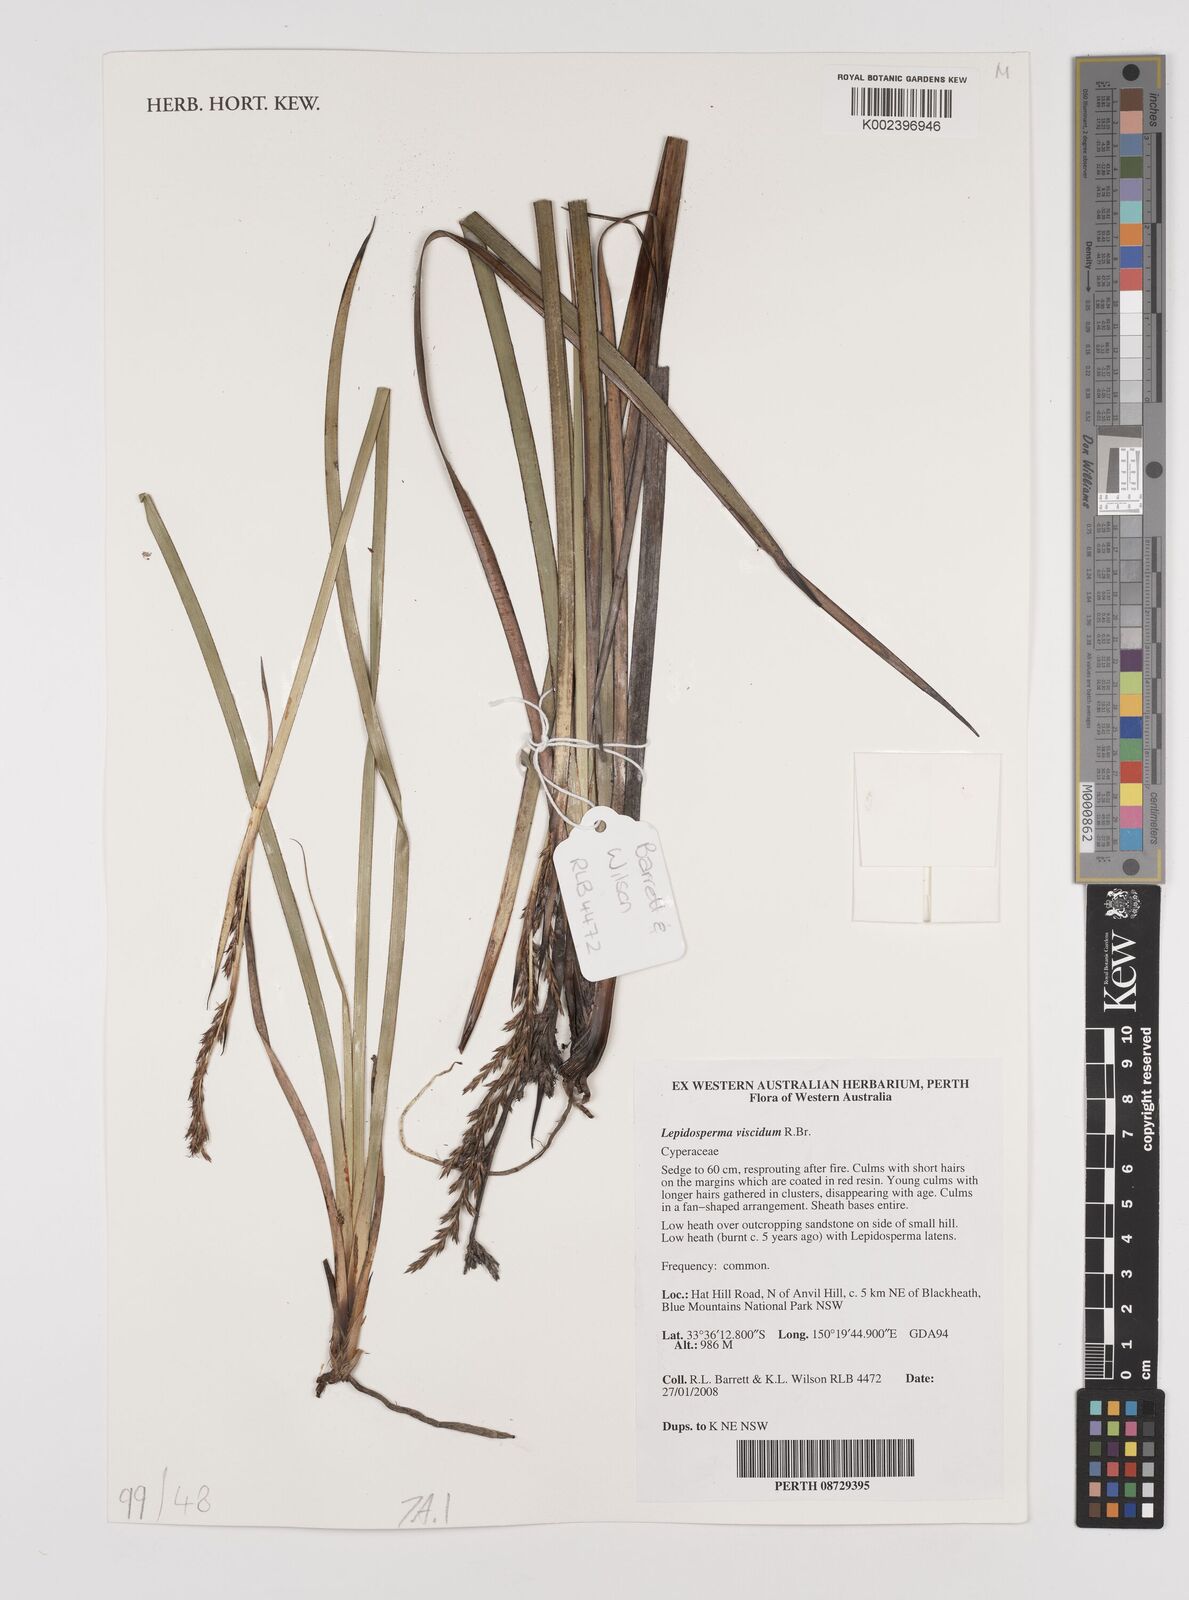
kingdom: Plantae
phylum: Tracheophyta
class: Liliopsida
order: Poales
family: Cyperaceae
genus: Lepidosperma
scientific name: Lepidosperma viscidum
